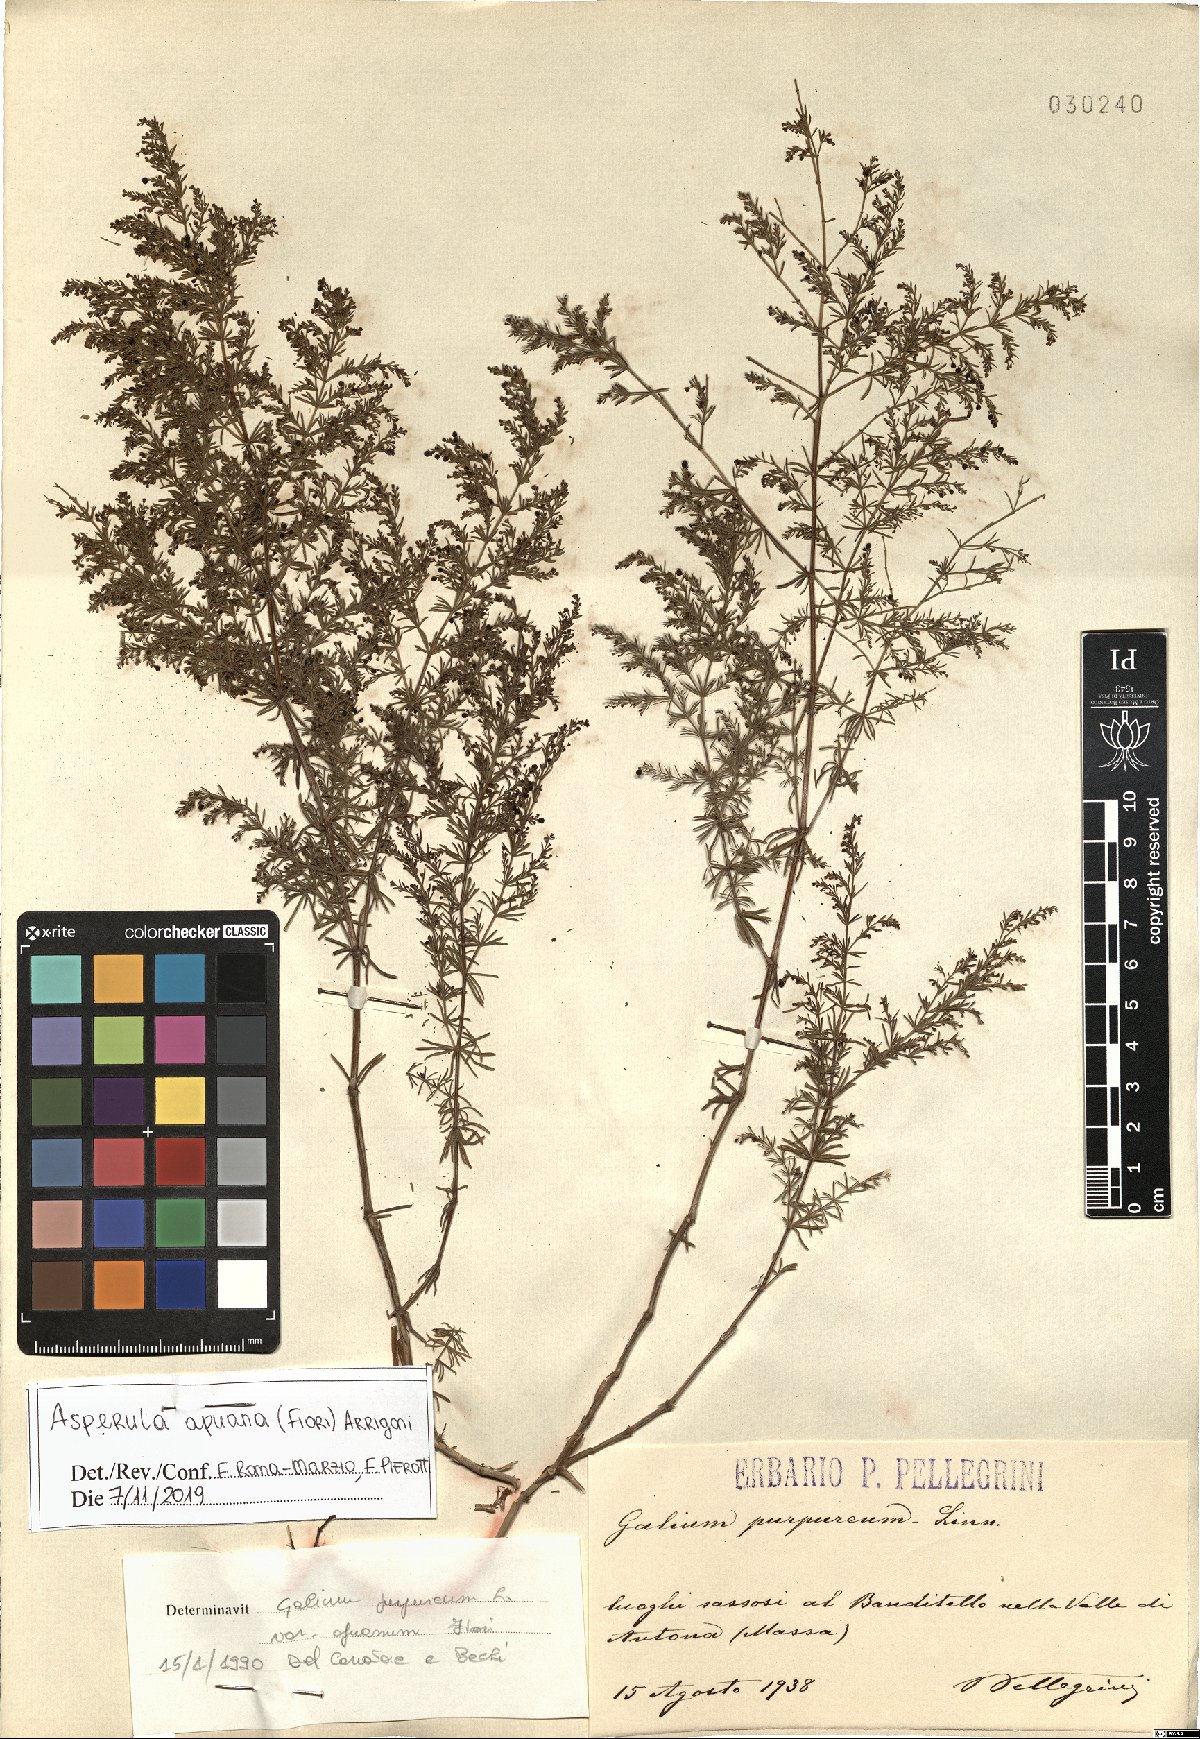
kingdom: Plantae
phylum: Tracheophyta
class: Magnoliopsida
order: Gentianales
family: Rubiaceae
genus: Thliphthisa
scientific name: Thliphthisa apuana
